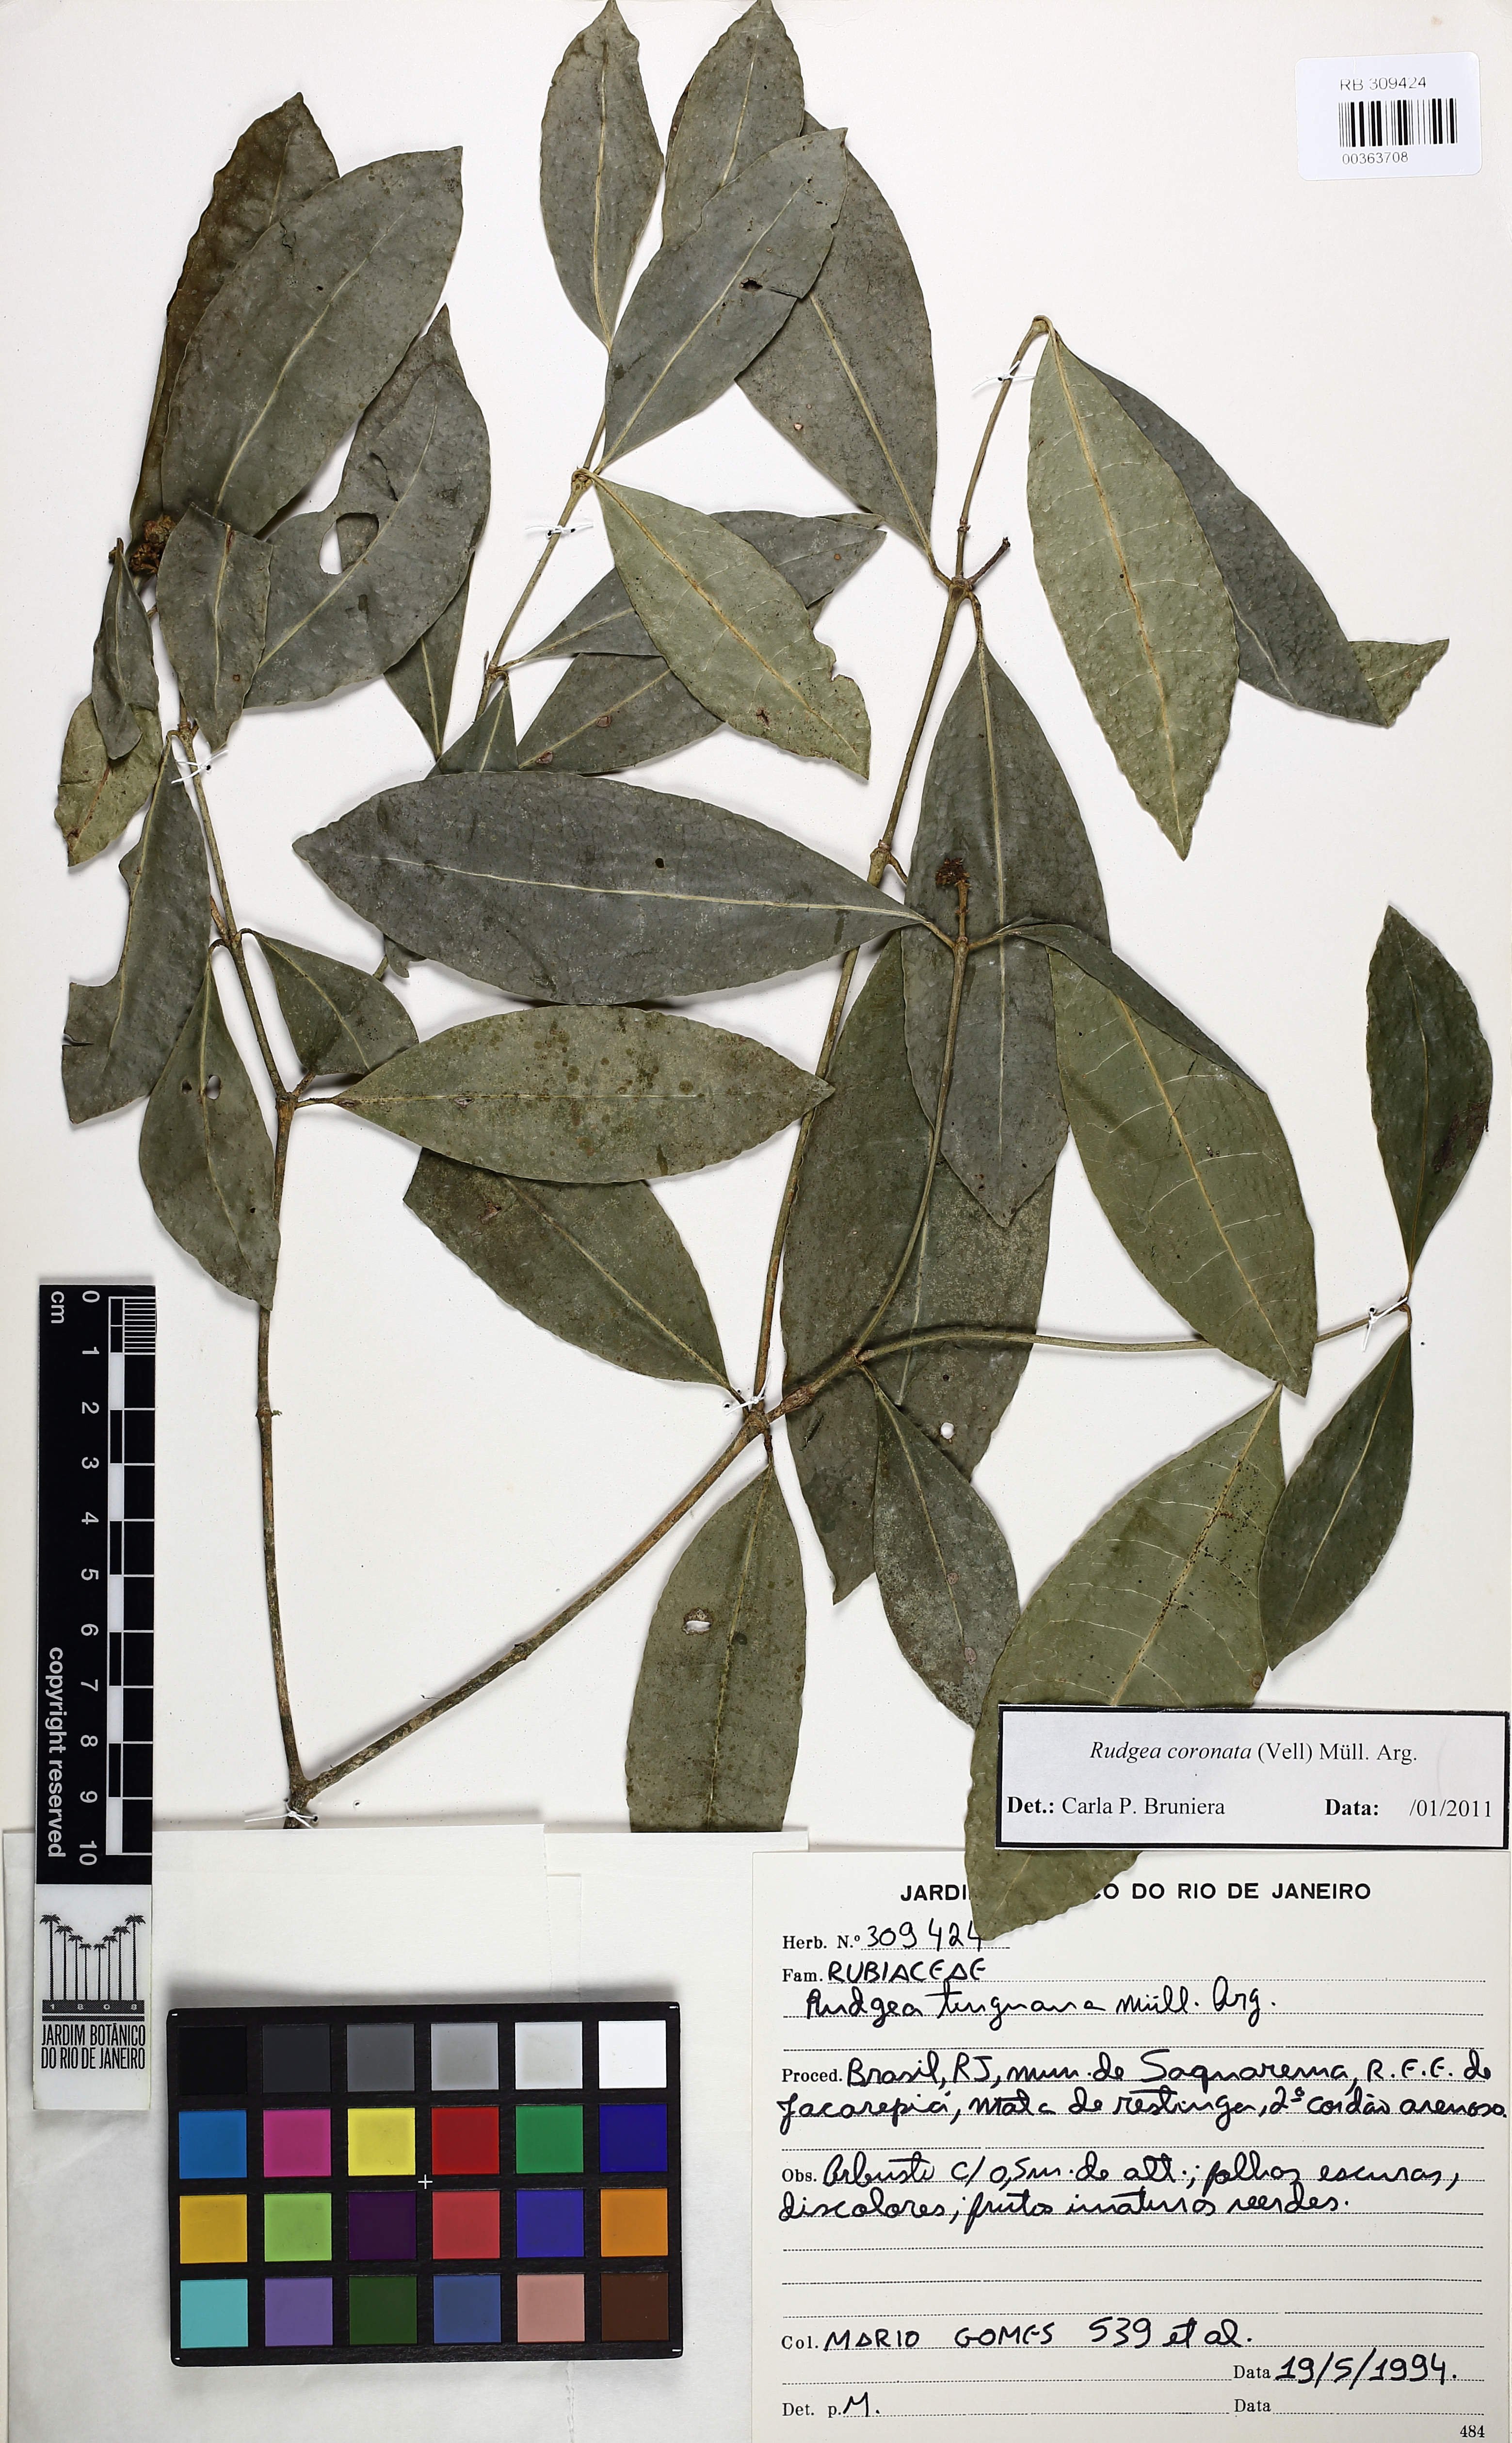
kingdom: Plantae
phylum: Tracheophyta
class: Magnoliopsida
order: Gentianales
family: Rubiaceae
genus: Rudgea
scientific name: Rudgea coronata
